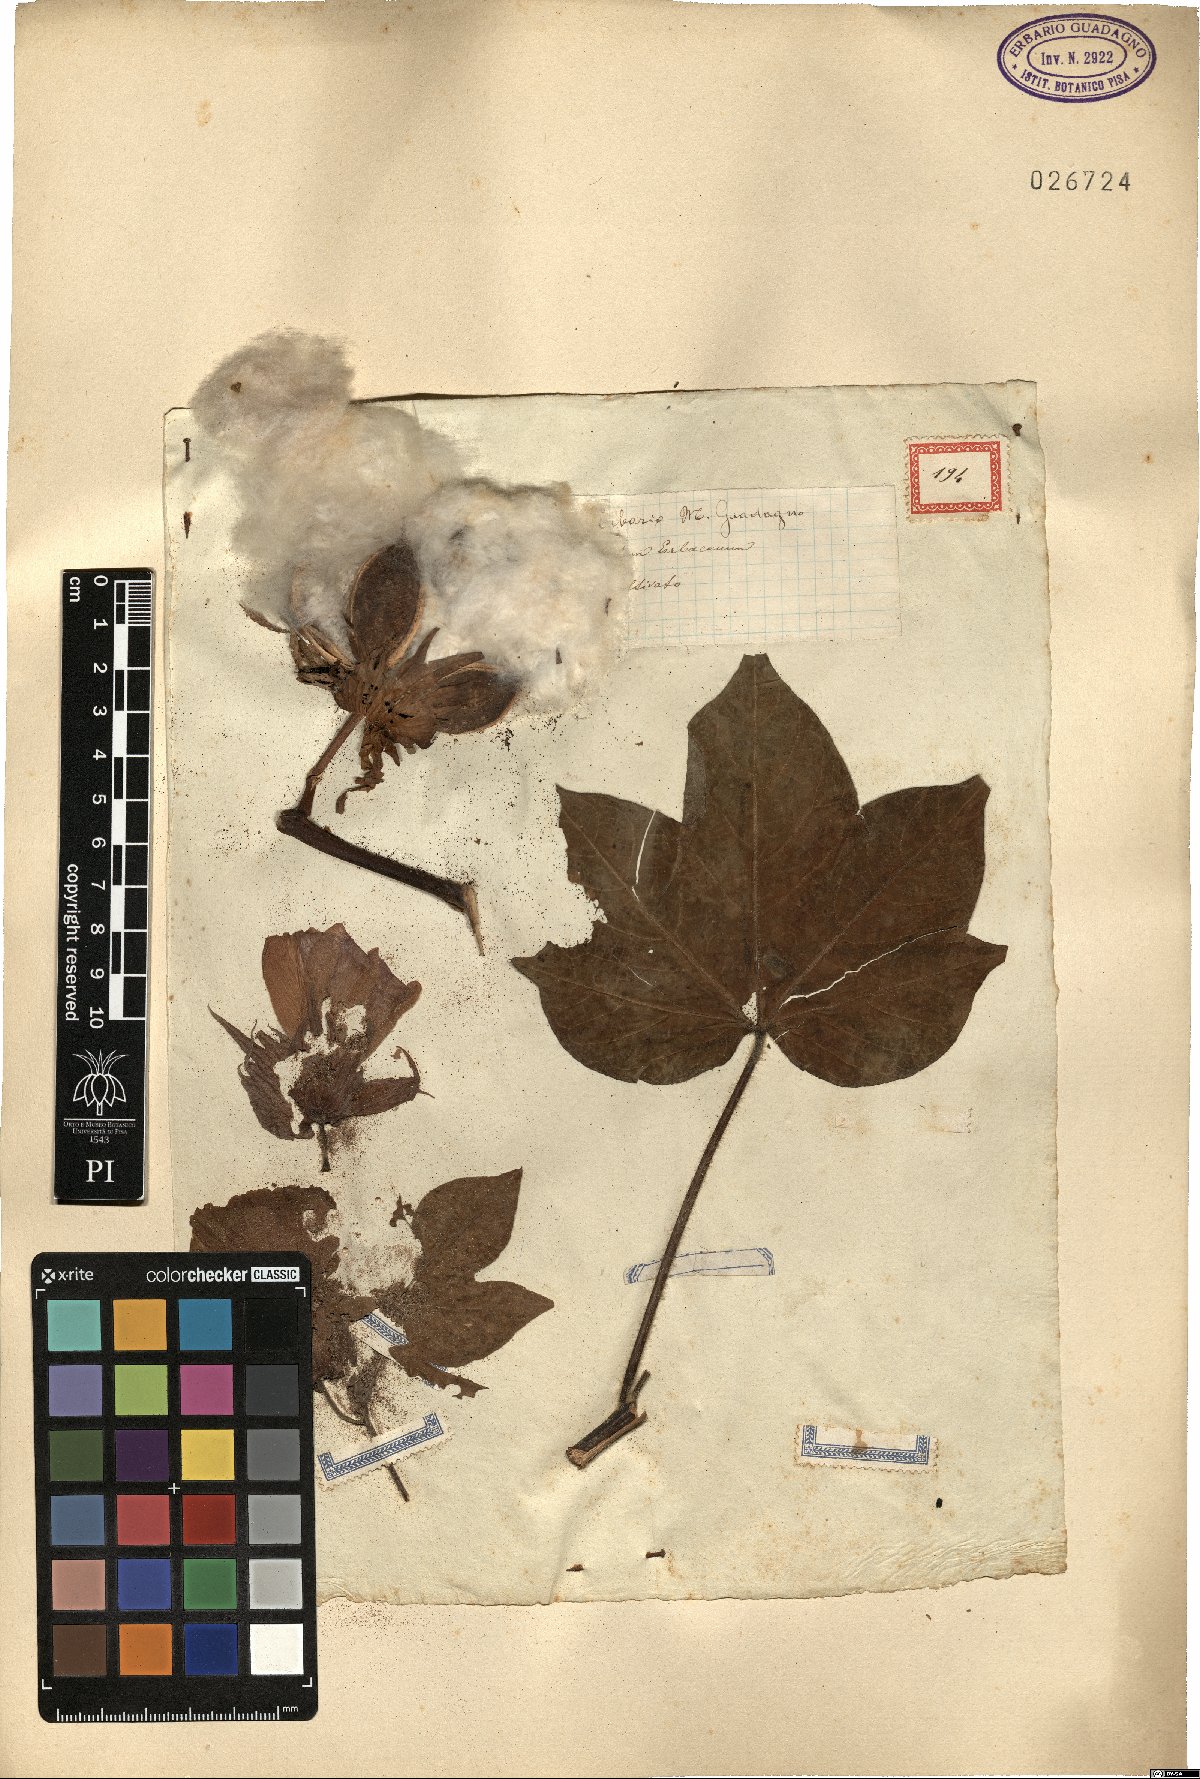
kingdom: Plantae
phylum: Tracheophyta
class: Magnoliopsida
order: Malvales
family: Malvaceae
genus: Gossypium
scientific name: Gossypium herbaceum
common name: Levant cotton
